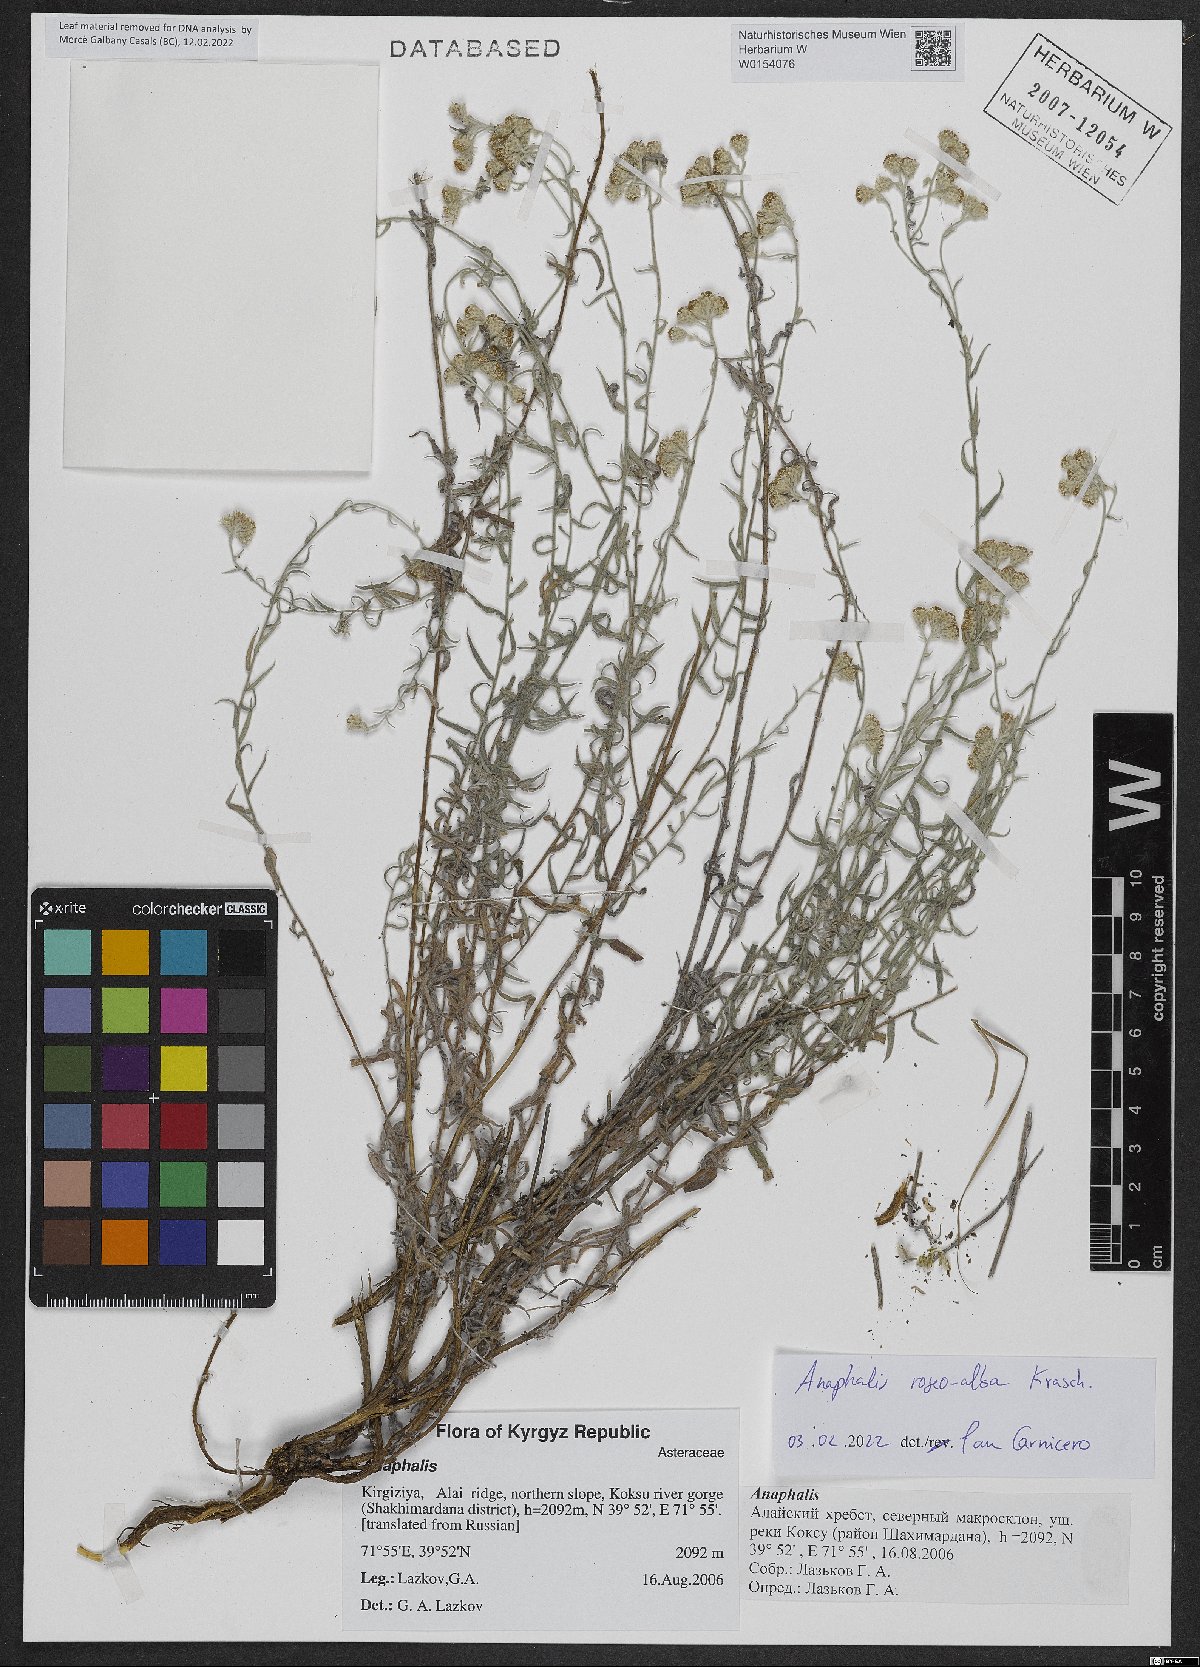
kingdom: Plantae
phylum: Tracheophyta
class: Magnoliopsida
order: Asterales
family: Asteraceae
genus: Anaphalis
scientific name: Anaphalis roseoalba
